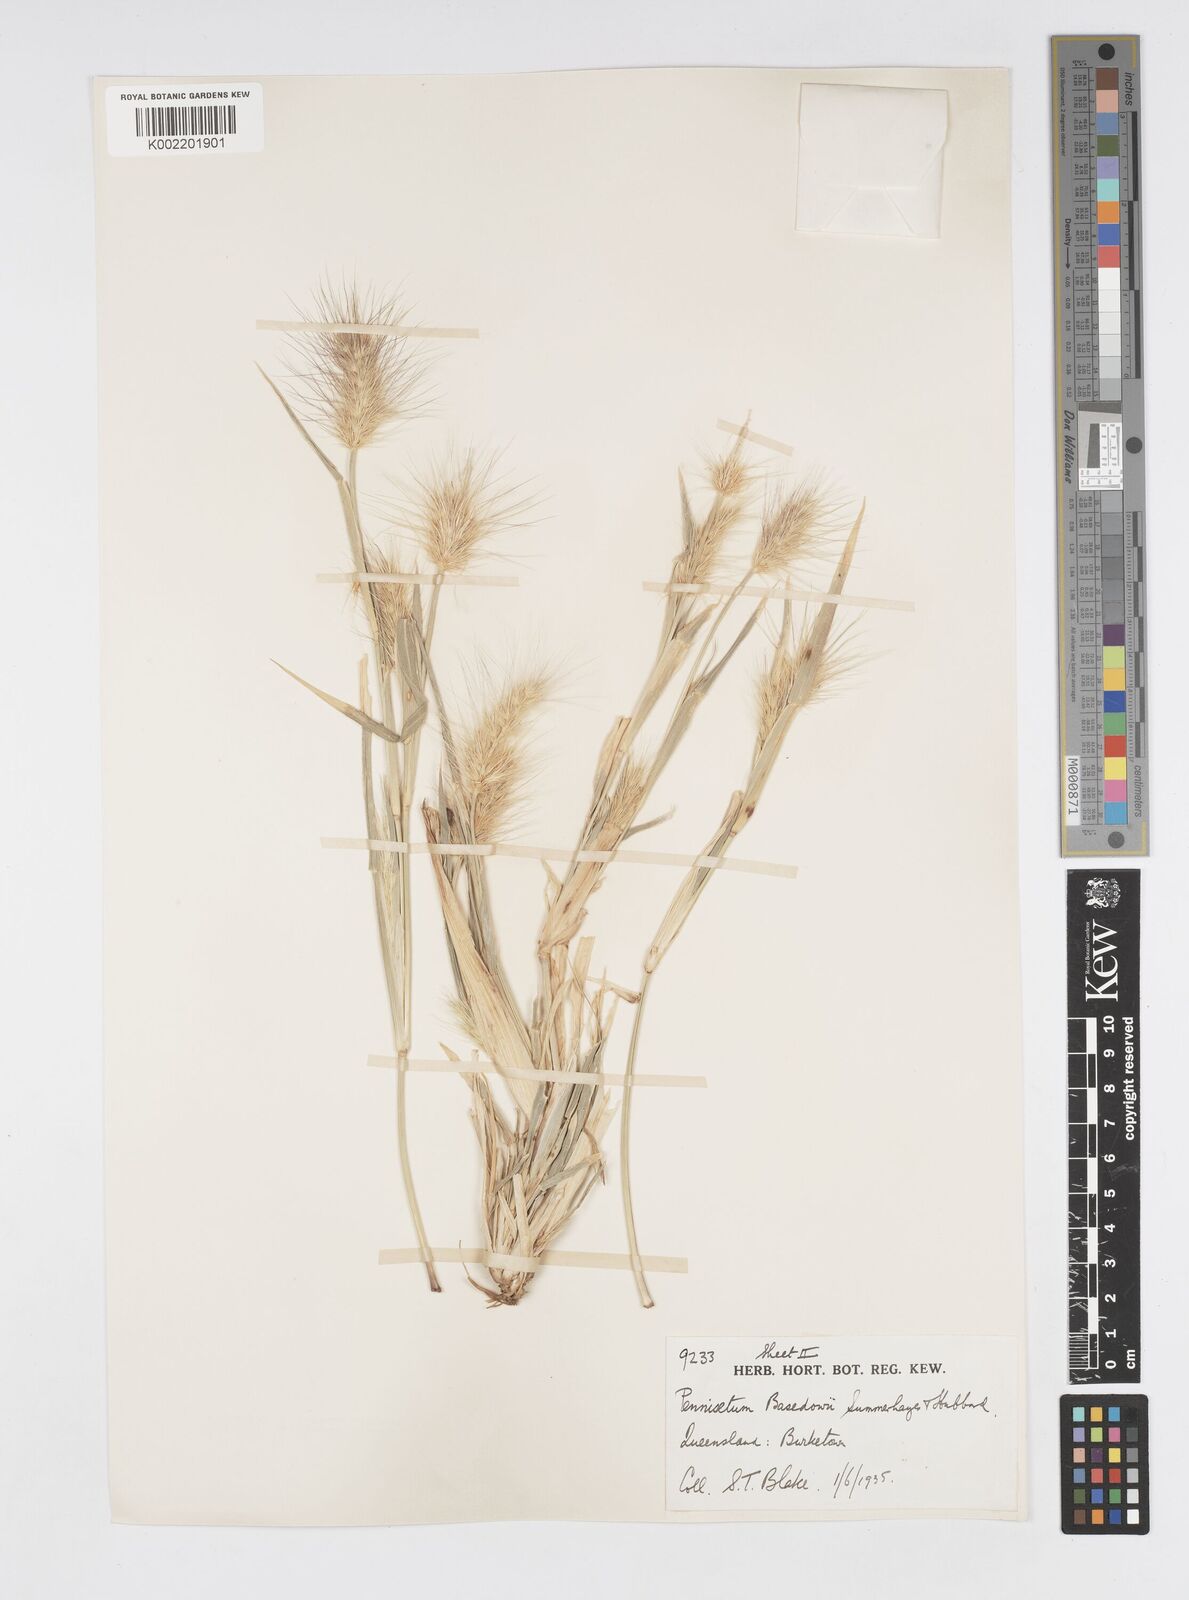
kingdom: Plantae
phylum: Tracheophyta
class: Liliopsida
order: Poales
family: Poaceae
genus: Cenchrus
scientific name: Cenchrus basedowii
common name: Asbestos grass
